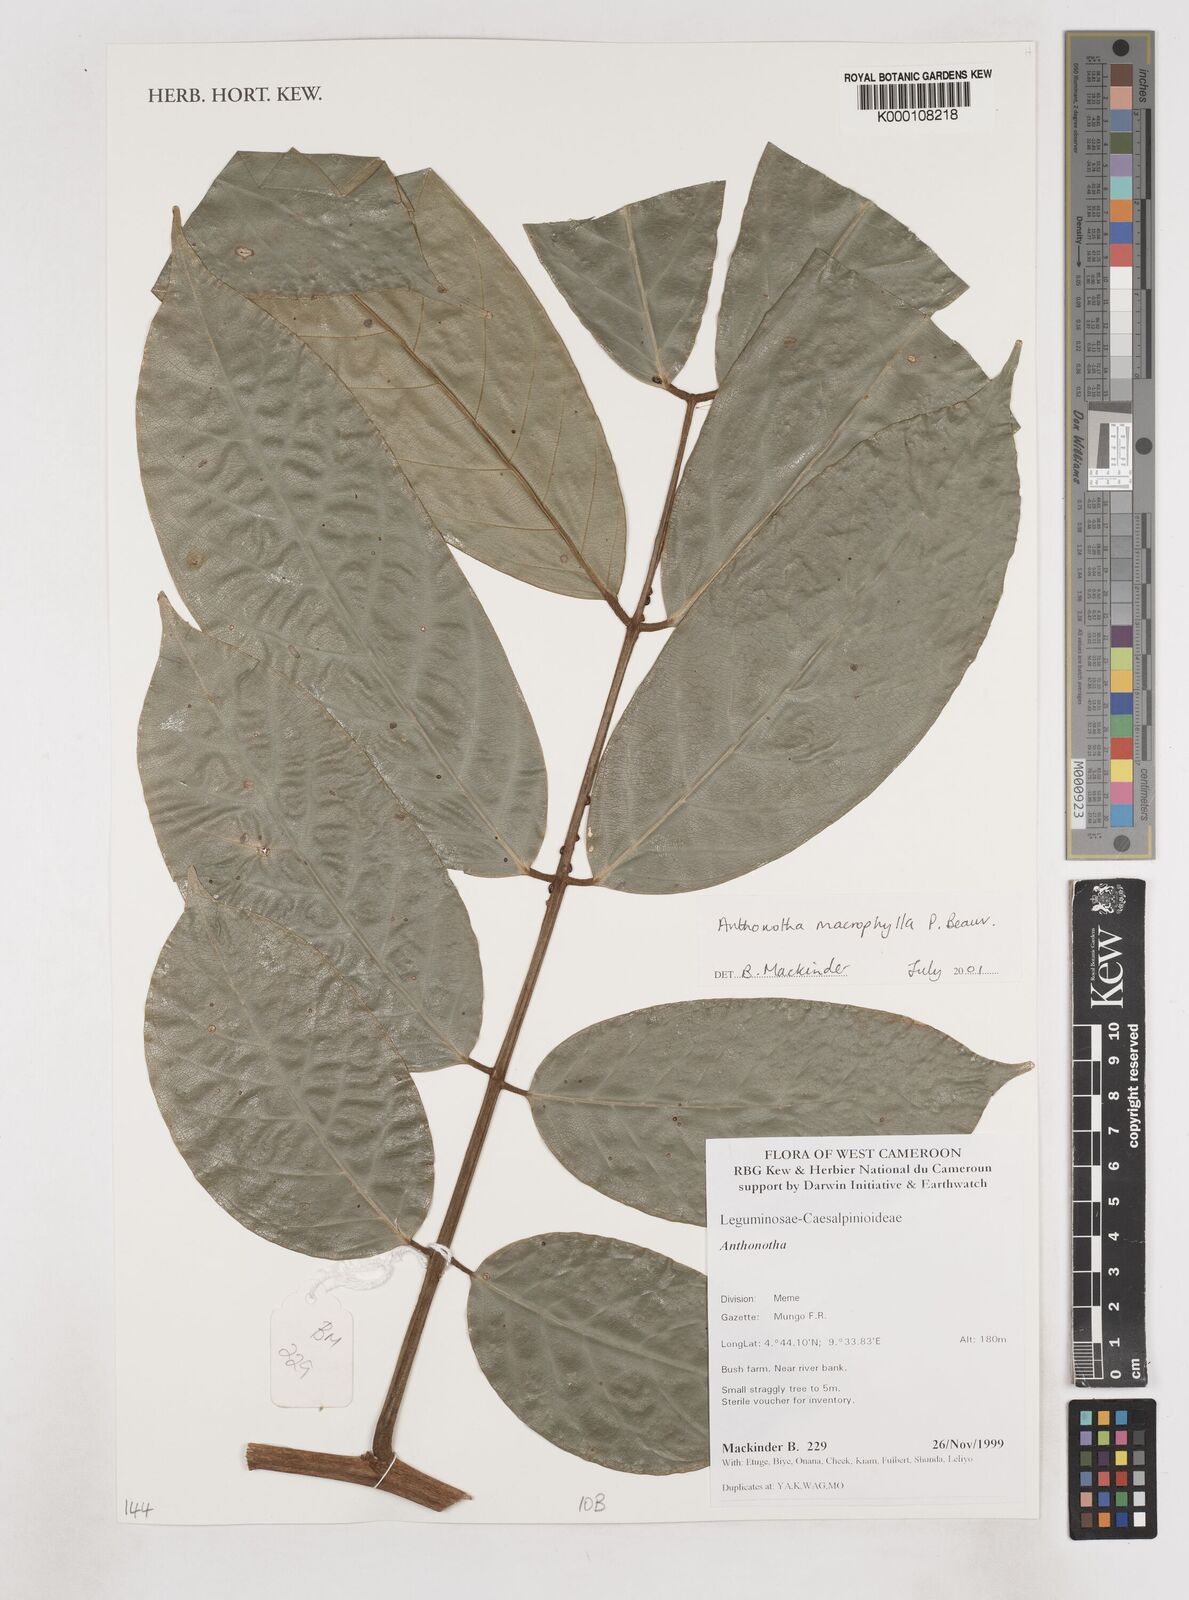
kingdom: Plantae
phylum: Tracheophyta
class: Magnoliopsida
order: Fabales
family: Fabaceae
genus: Anthonotha
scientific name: Anthonotha macrophylla
